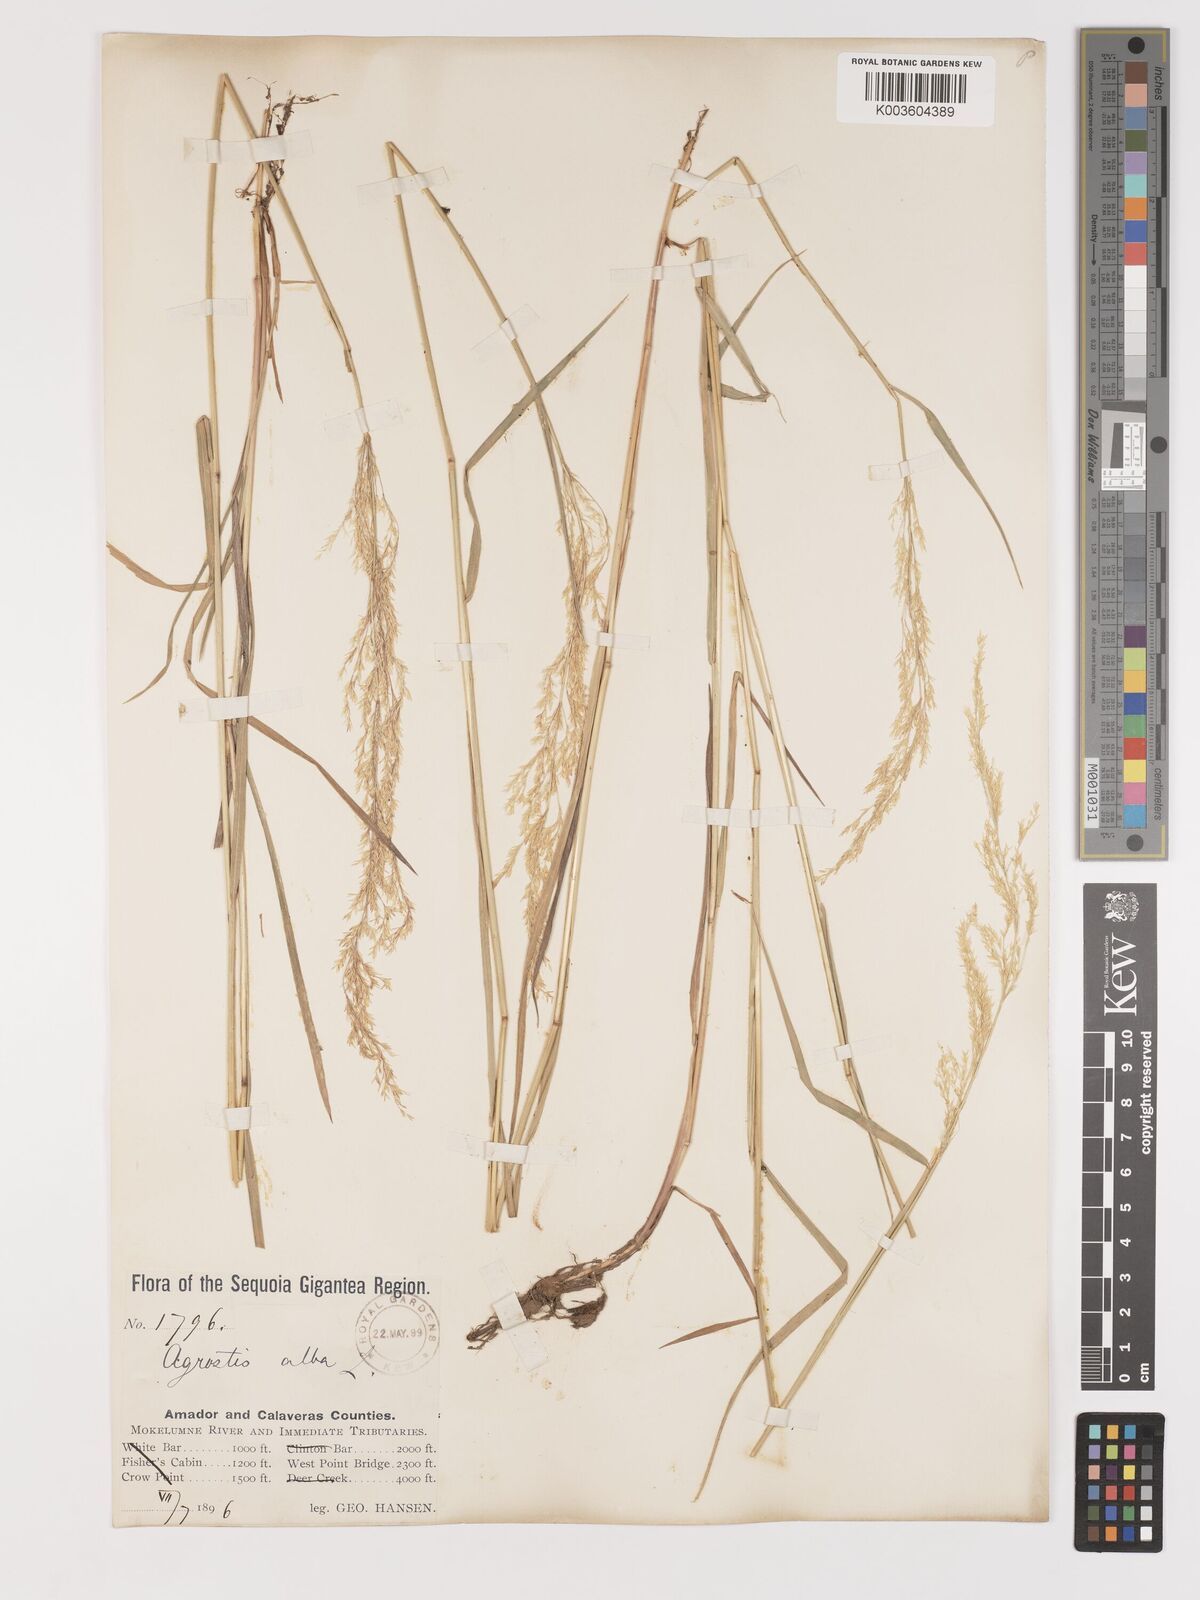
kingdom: Plantae
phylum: Tracheophyta
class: Liliopsida
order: Poales
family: Poaceae
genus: Agrostis
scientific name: Agrostis exarata
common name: Spike bent
